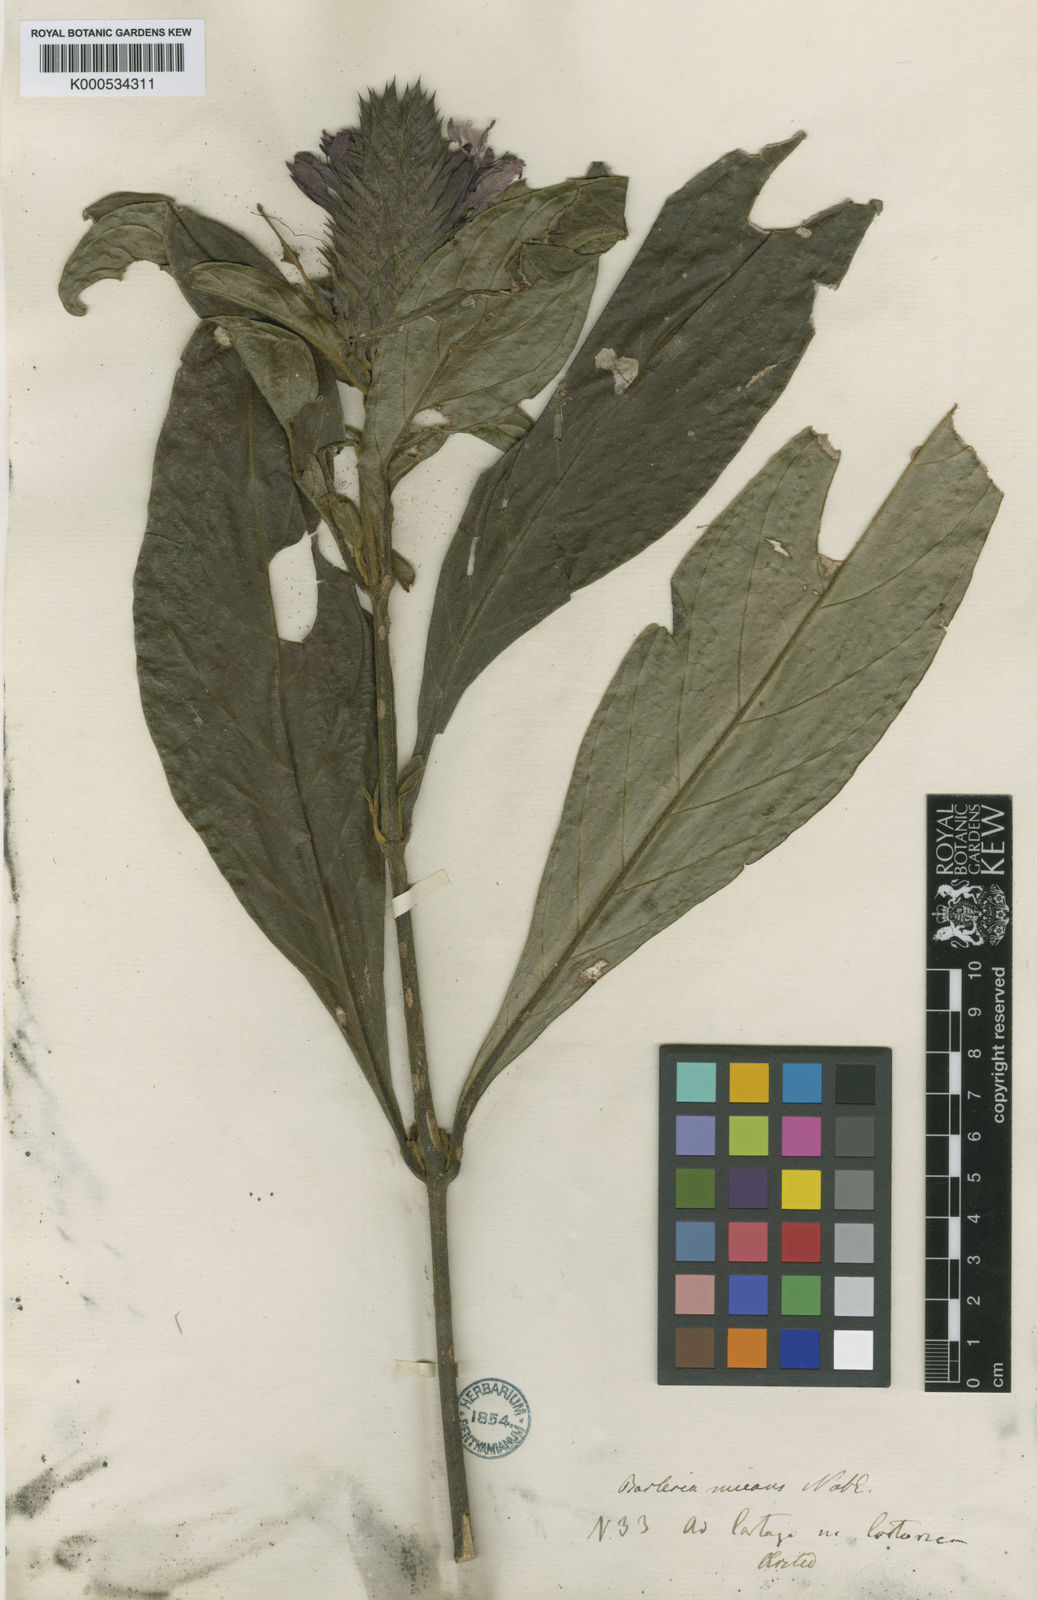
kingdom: Plantae
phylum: Tracheophyta
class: Magnoliopsida
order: Lamiales
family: Acanthaceae
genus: Barleria
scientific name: Barleria oenotheroides
